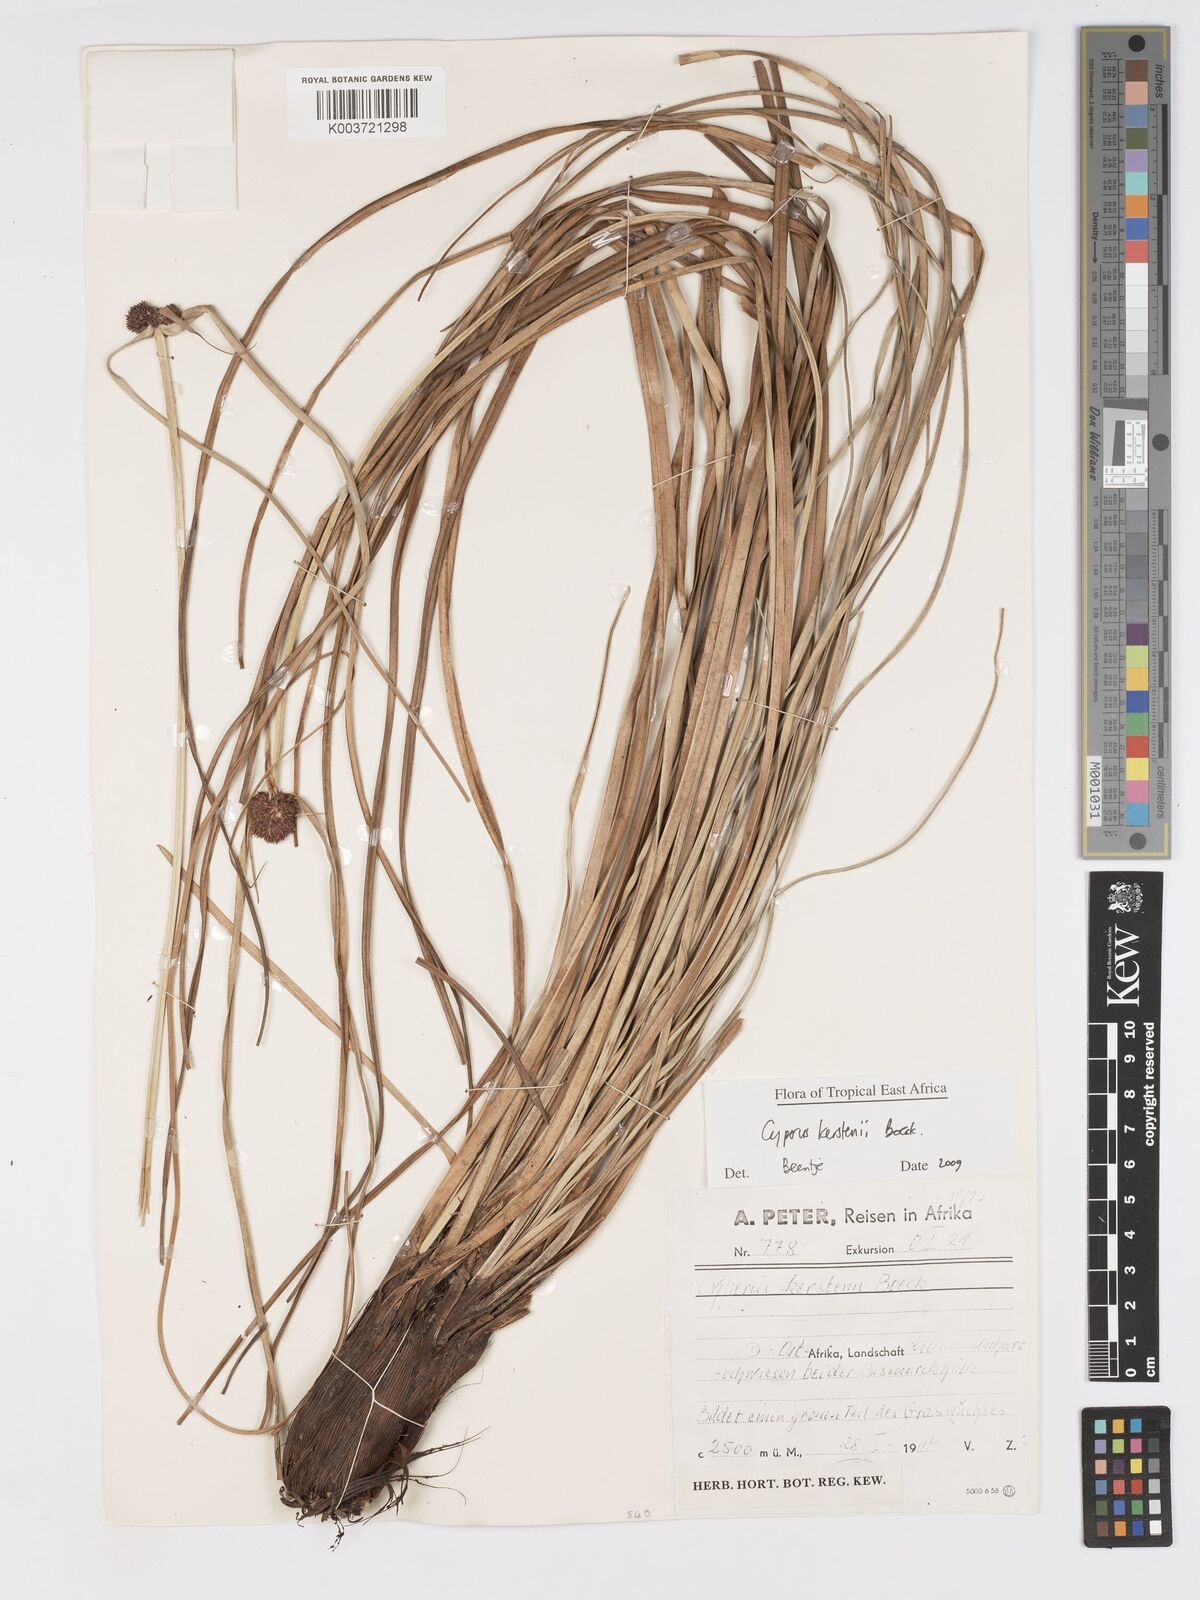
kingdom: Plantae
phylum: Tracheophyta
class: Liliopsida
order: Poales
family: Cyperaceae
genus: Cyperus
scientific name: Cyperus kerstenii
